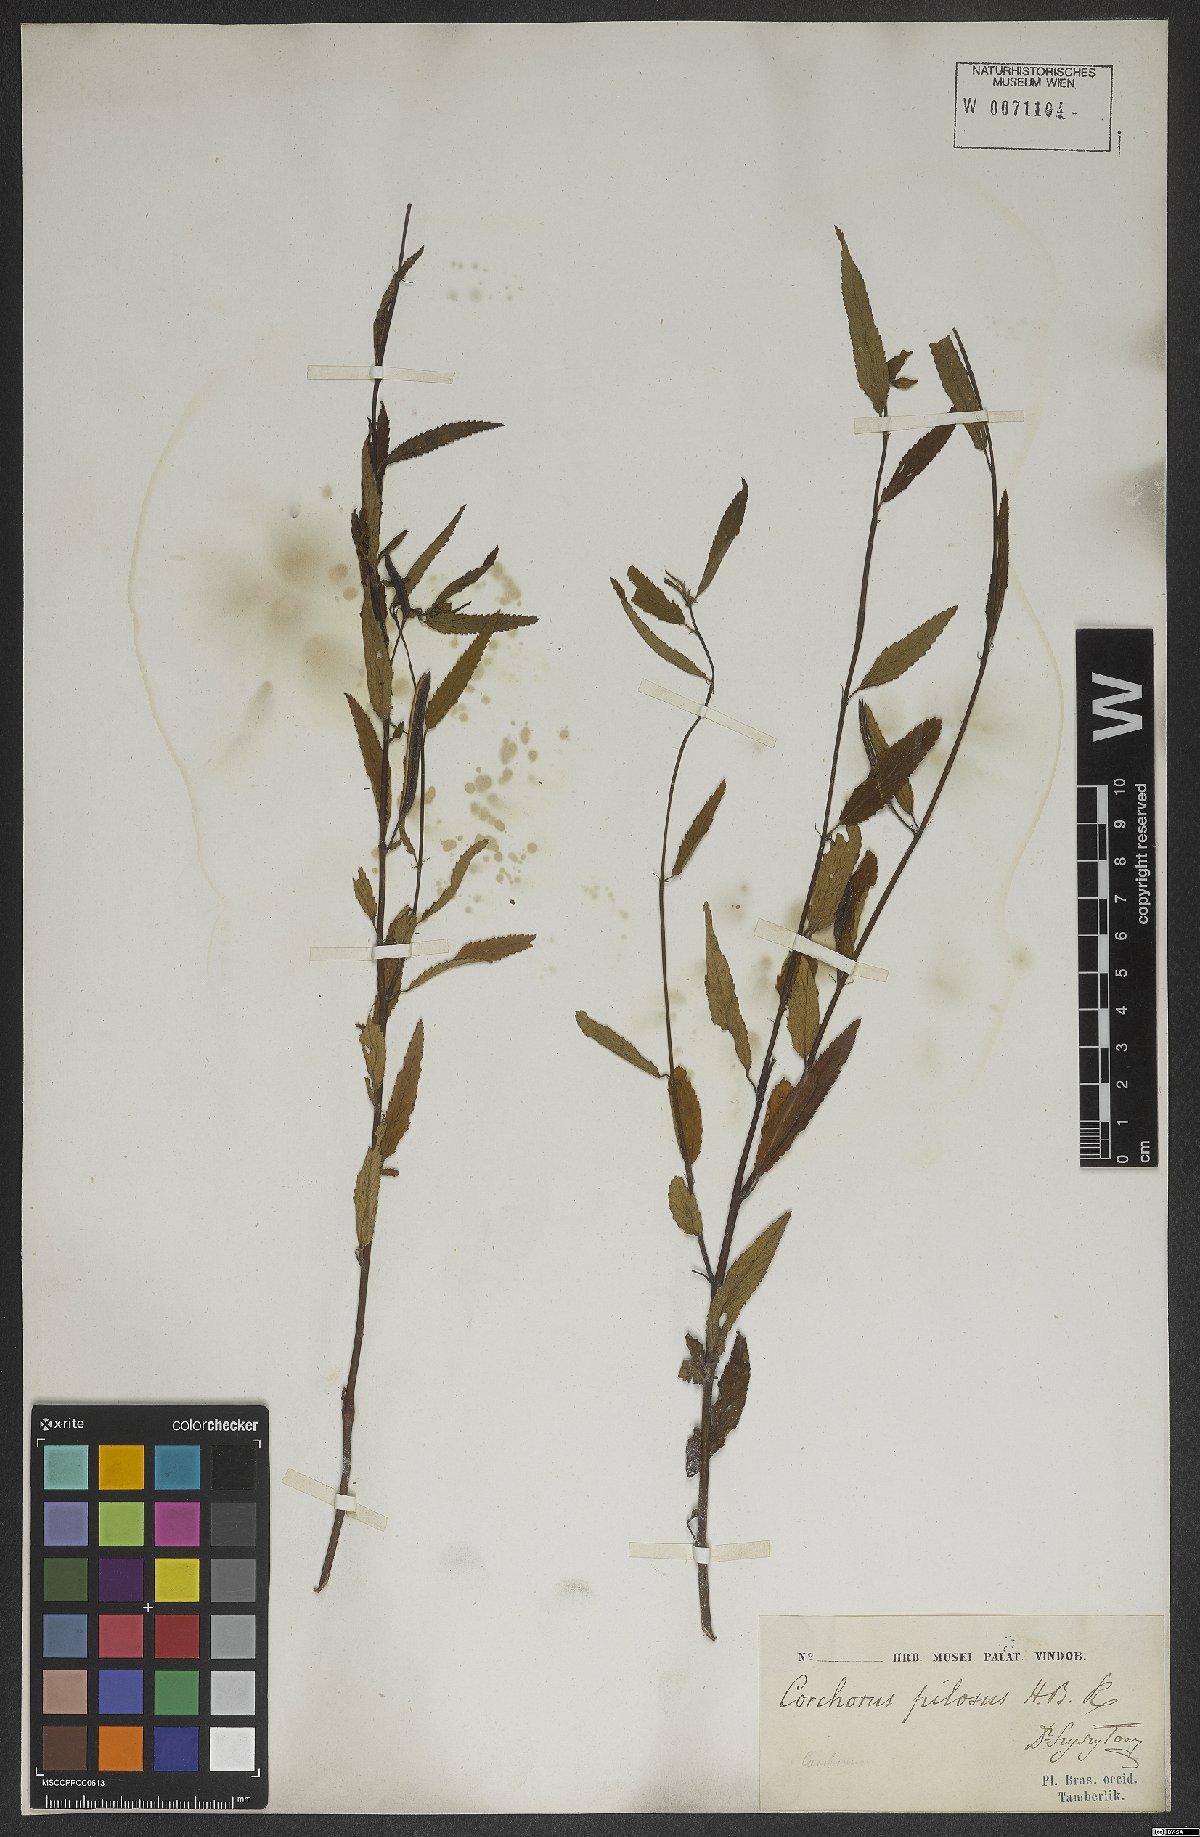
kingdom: Plantae
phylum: Tracheophyta
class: Magnoliopsida
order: Malvales
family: Malvaceae
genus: Corchorus
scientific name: Corchorus hirtus
